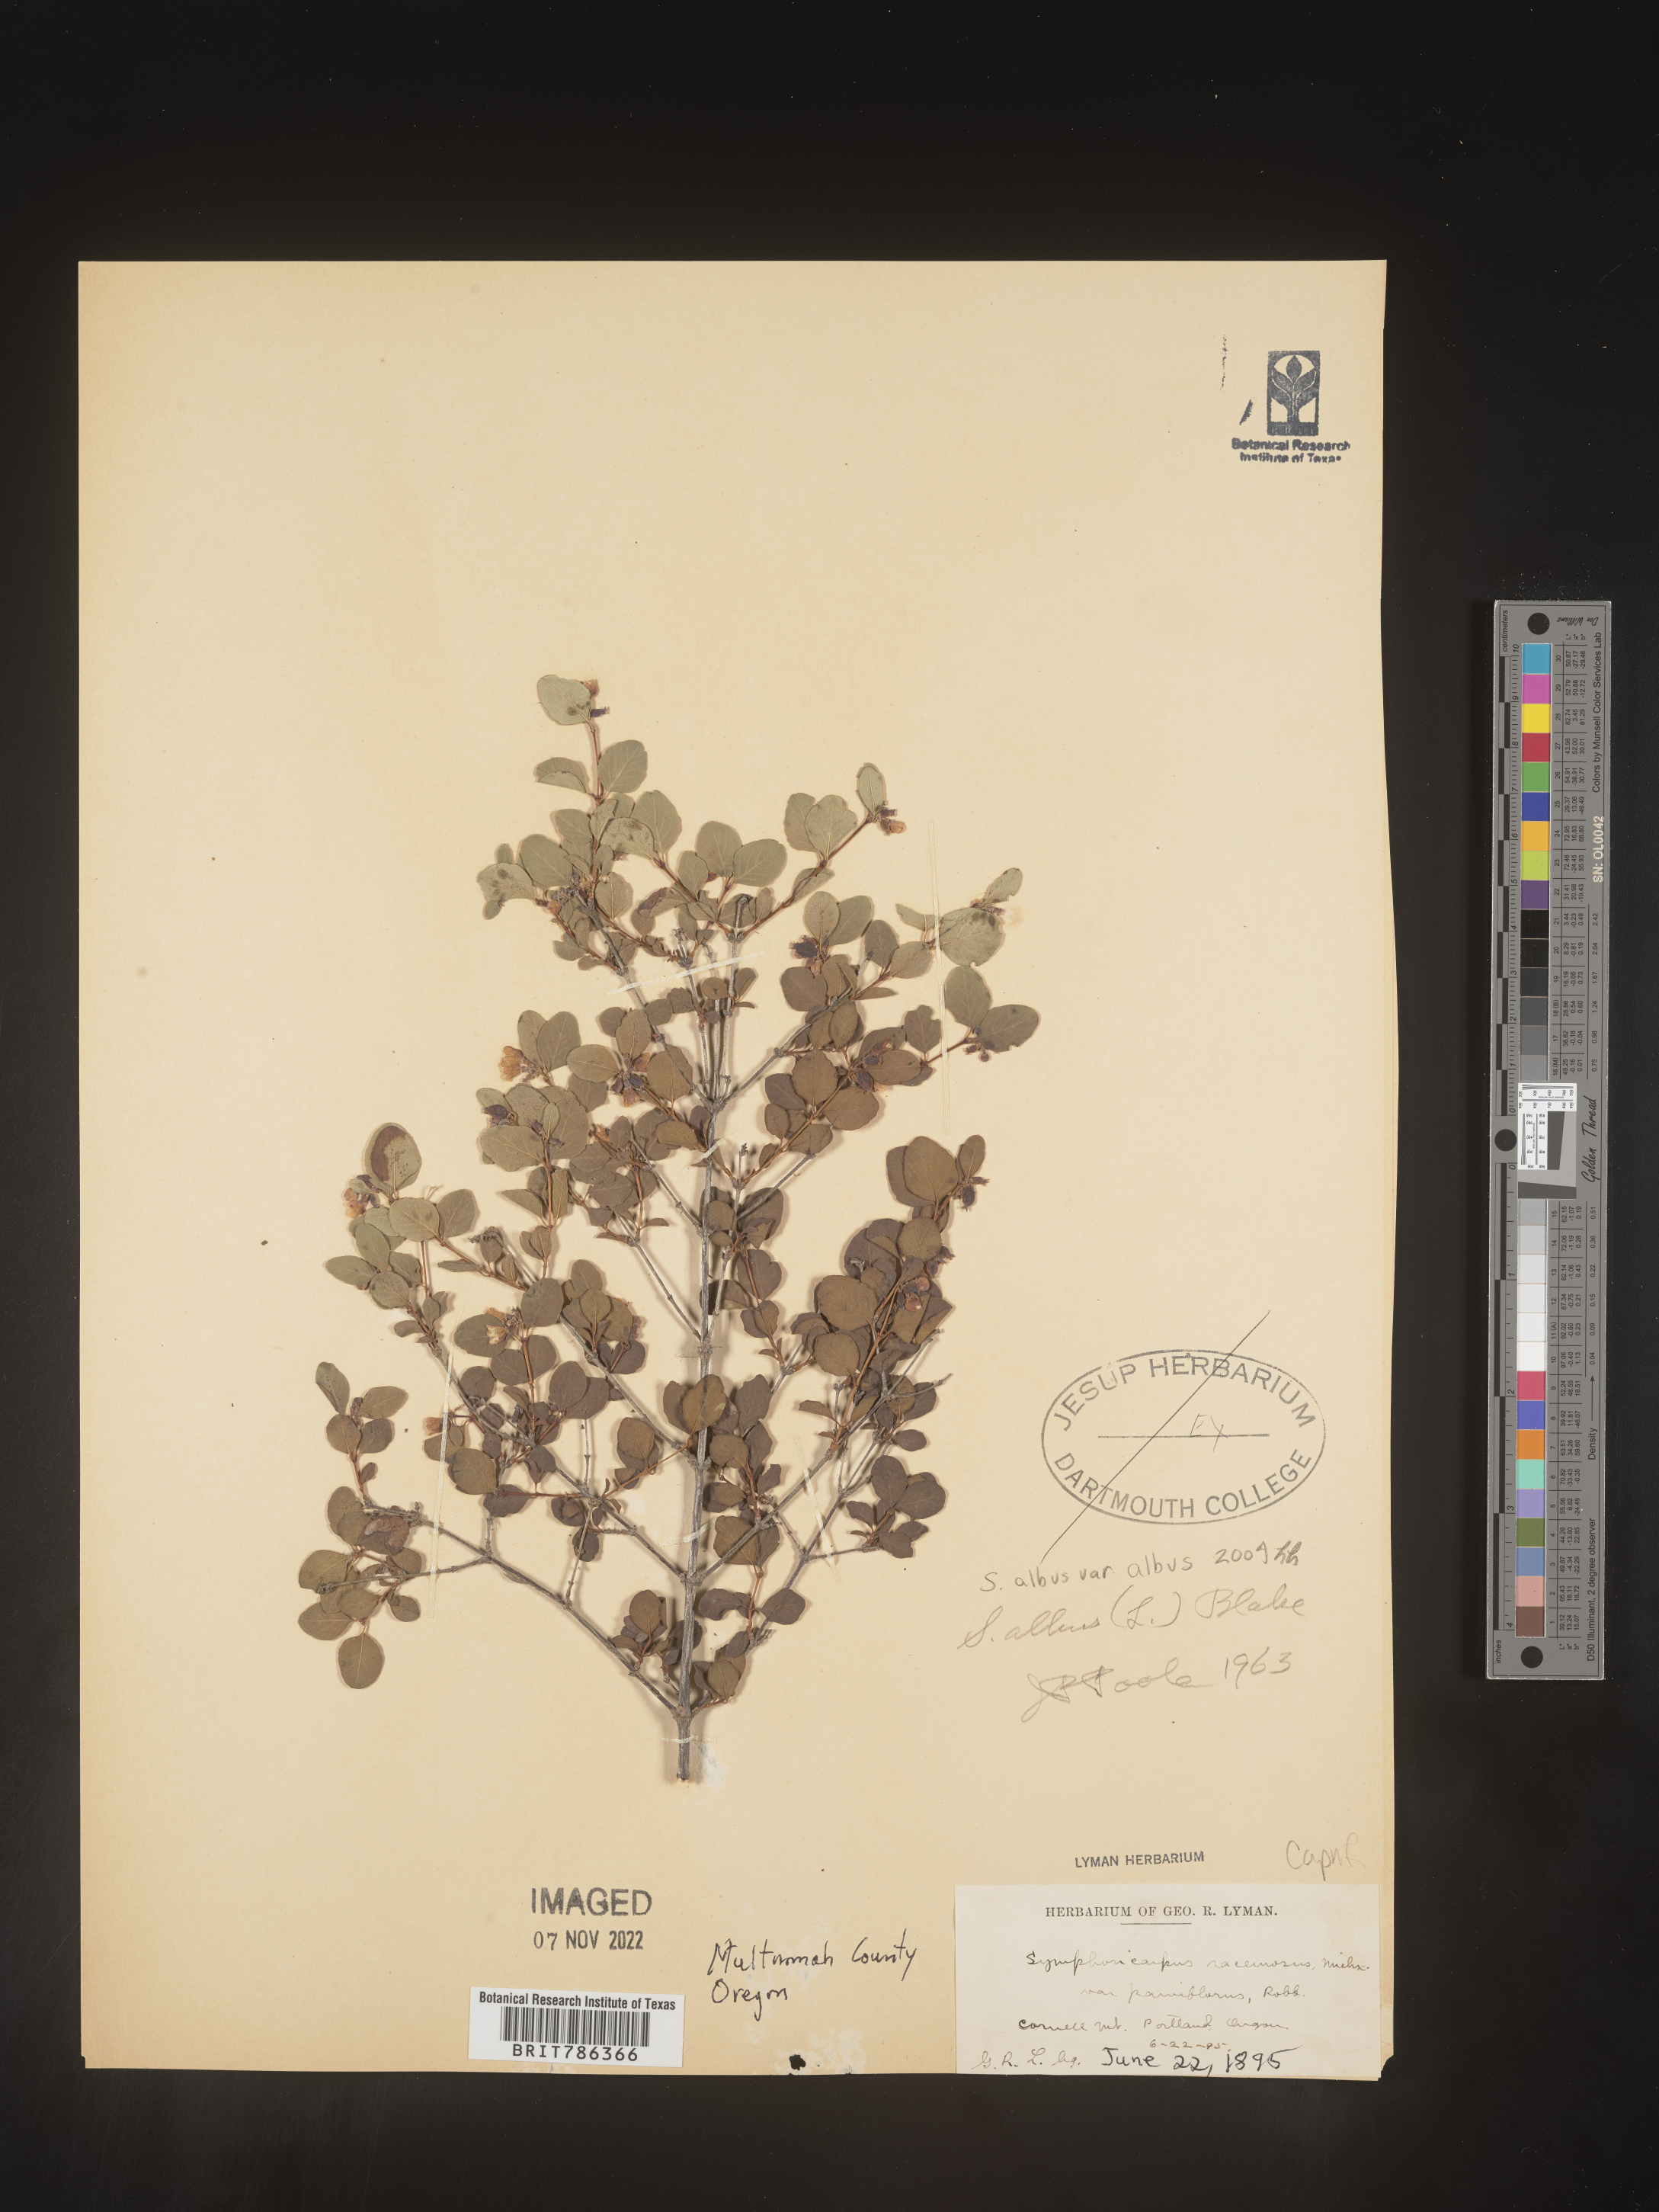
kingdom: Plantae
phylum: Tracheophyta
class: Magnoliopsida
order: Dipsacales
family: Caprifoliaceae
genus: Symphoricarpos
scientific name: Symphoricarpos albus
